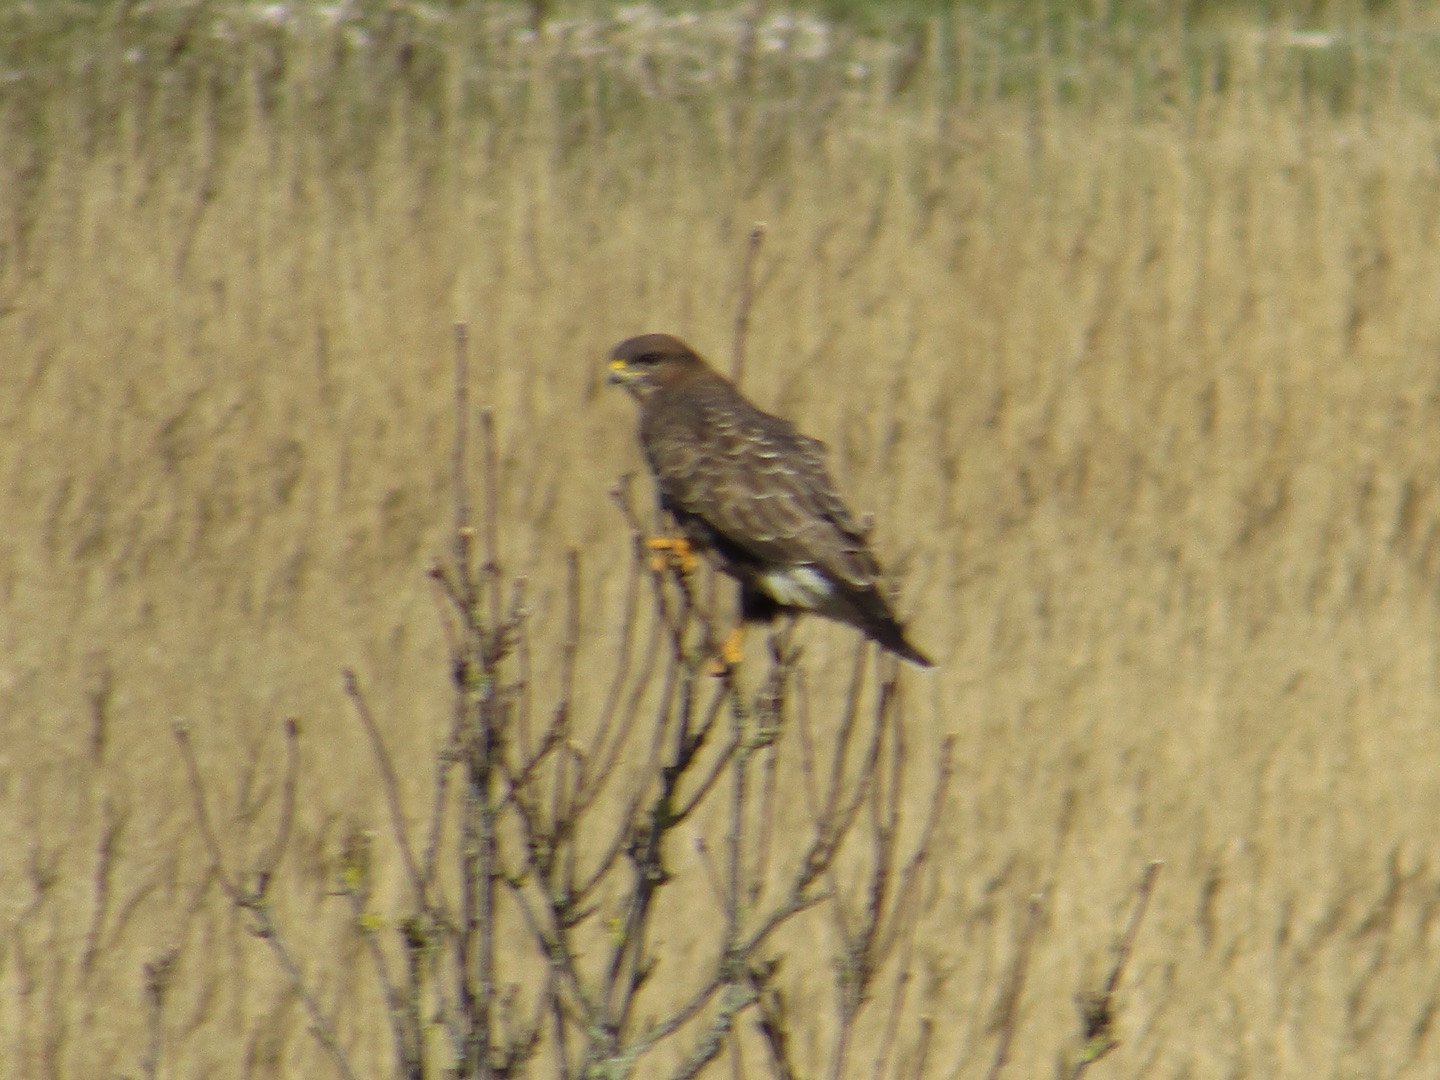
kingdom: Animalia
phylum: Chordata
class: Aves
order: Accipitriformes
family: Accipitridae
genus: Buteo
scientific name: Buteo buteo
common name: Musvåge
